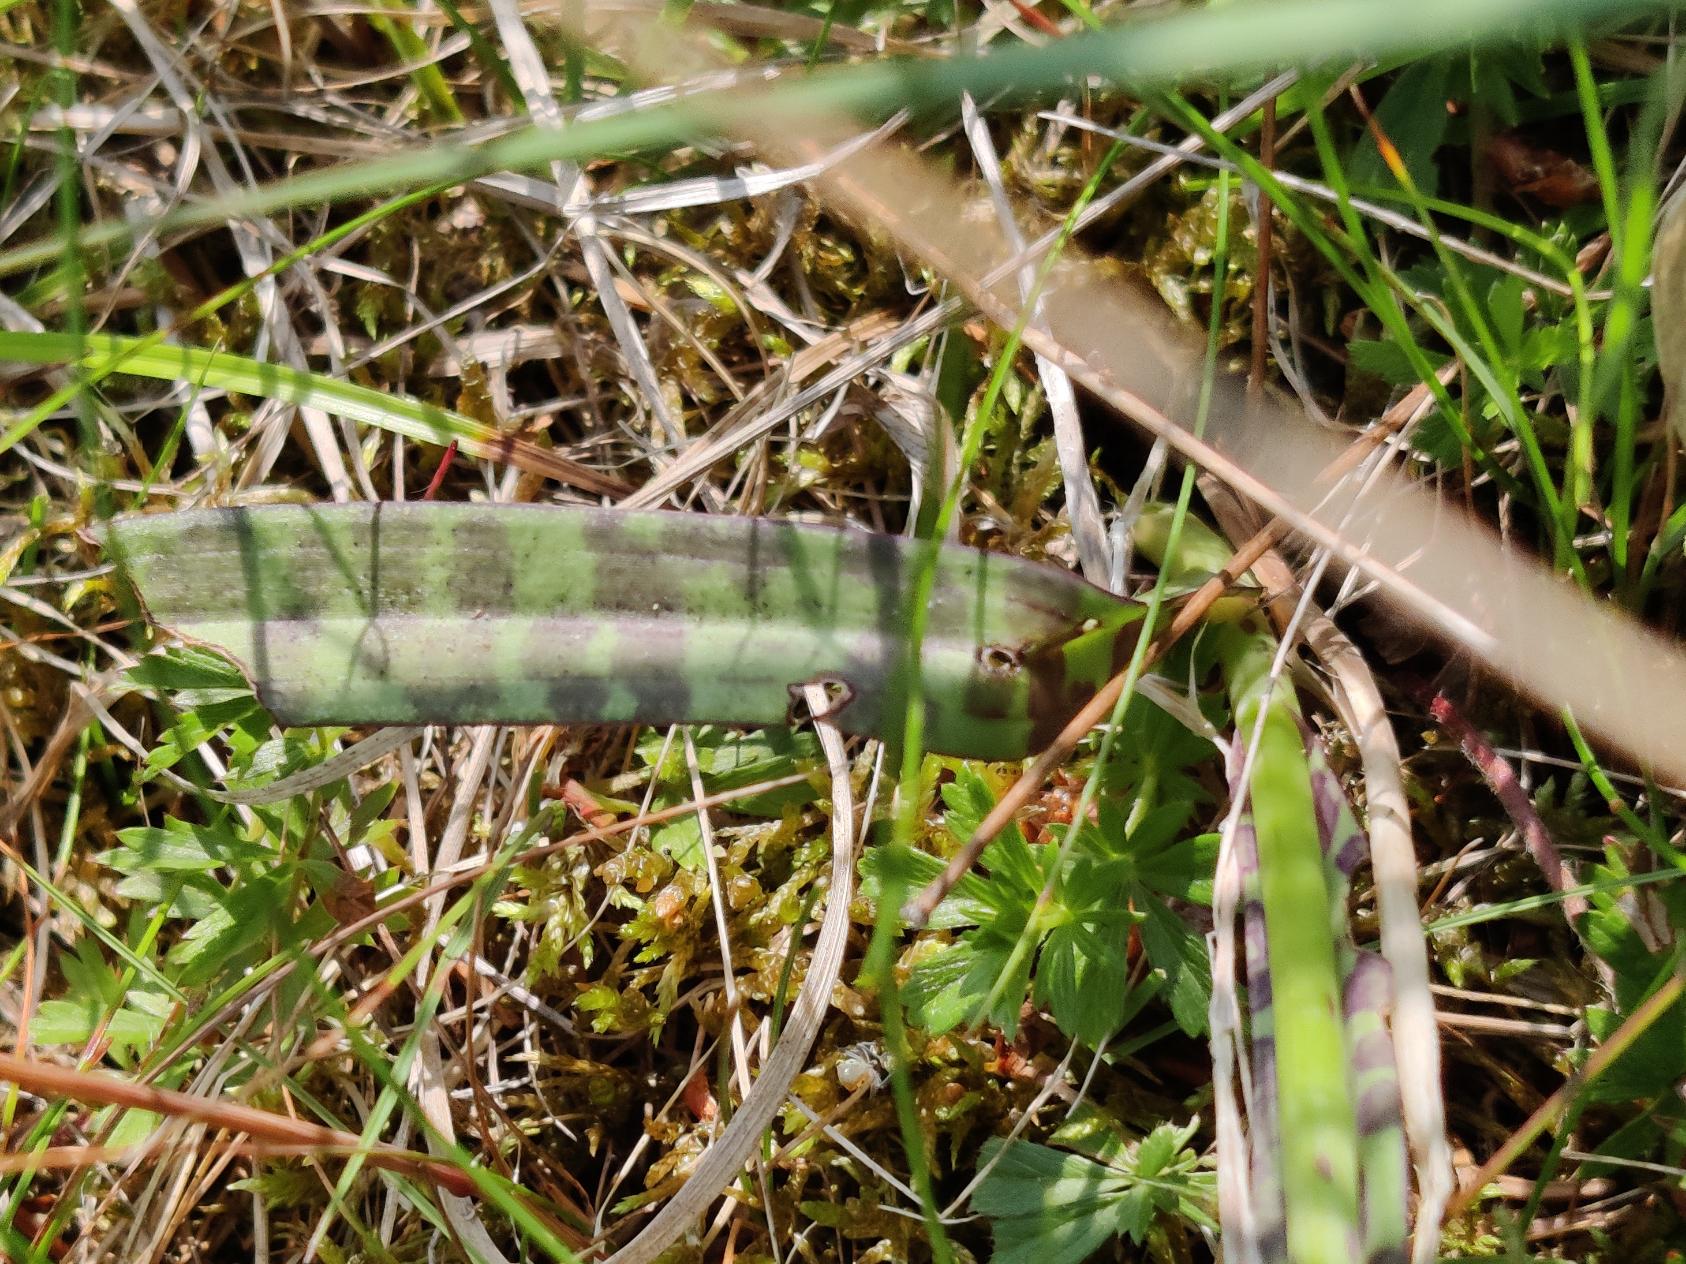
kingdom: Plantae
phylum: Tracheophyta
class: Liliopsida
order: Asparagales
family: Orchidaceae
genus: Dactylorhiza
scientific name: Dactylorhiza maculata
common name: Plettet gøgeurt
